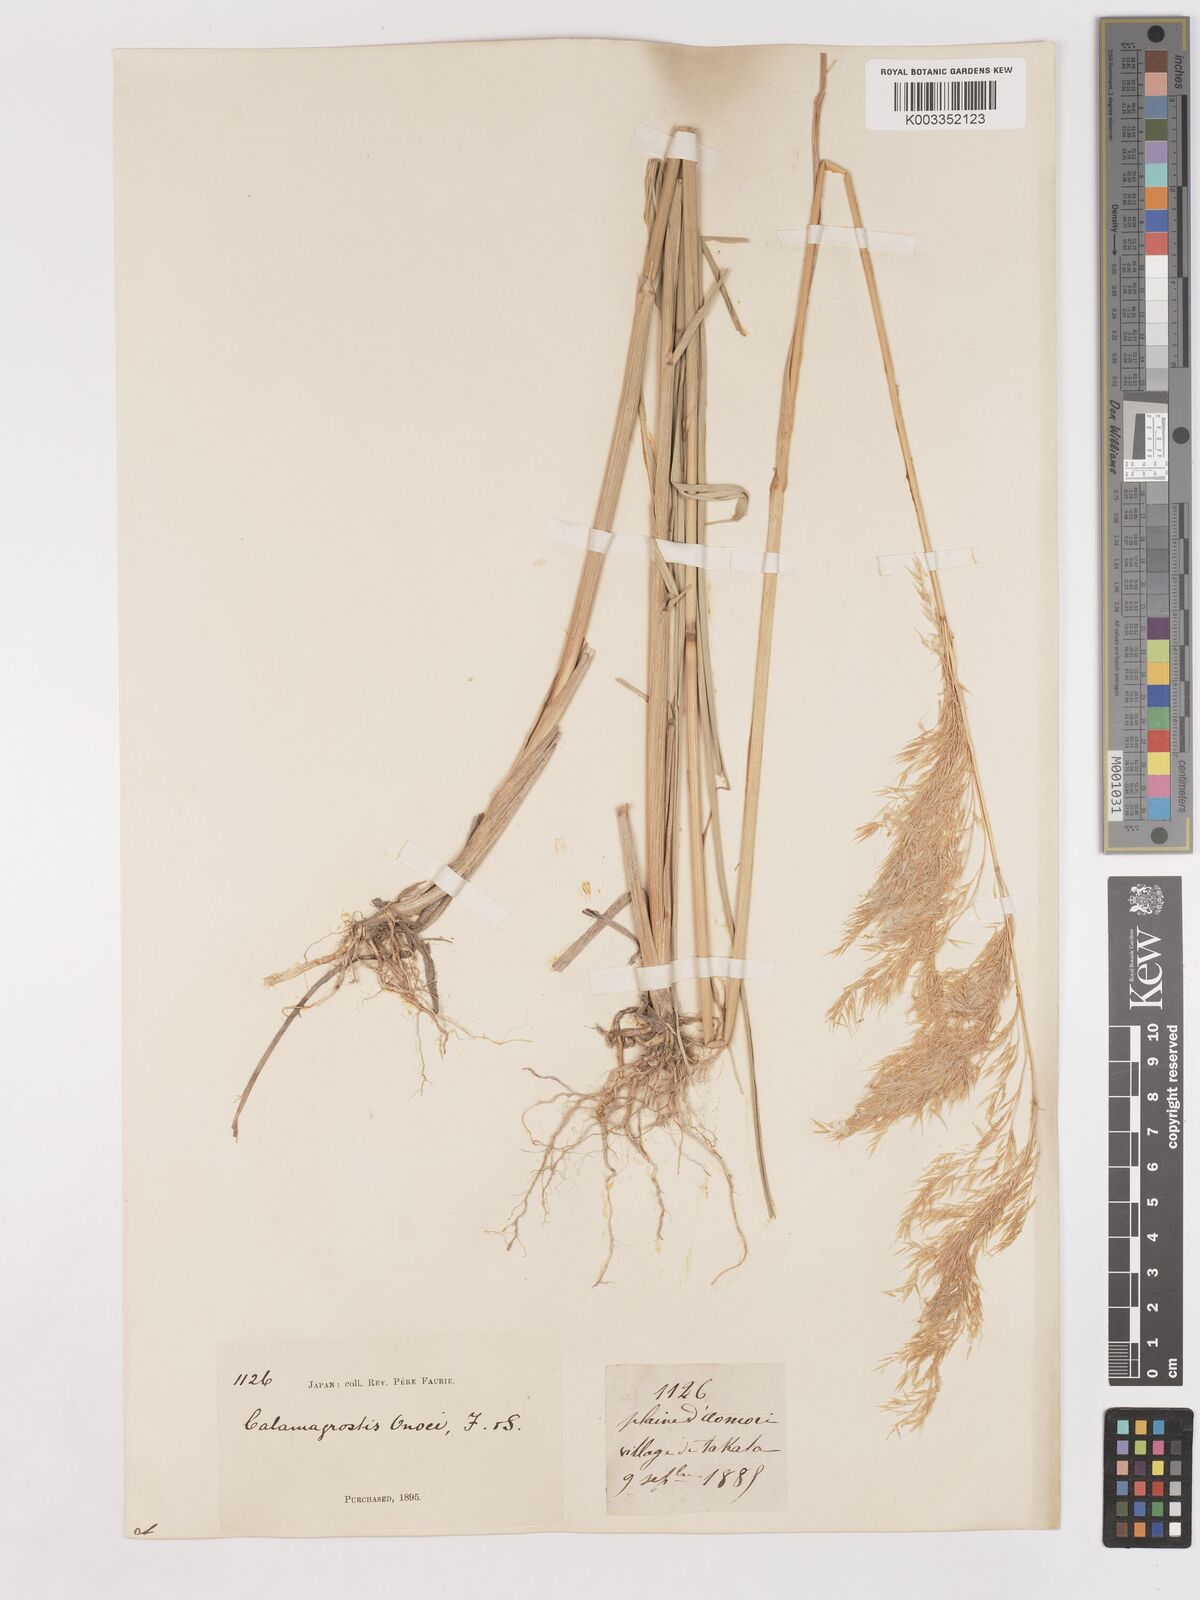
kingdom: Plantae
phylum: Tracheophyta
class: Liliopsida
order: Poales
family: Poaceae
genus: Calamagrostis
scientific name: Calamagrostis pseudophragmites
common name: Coastal small-reed
